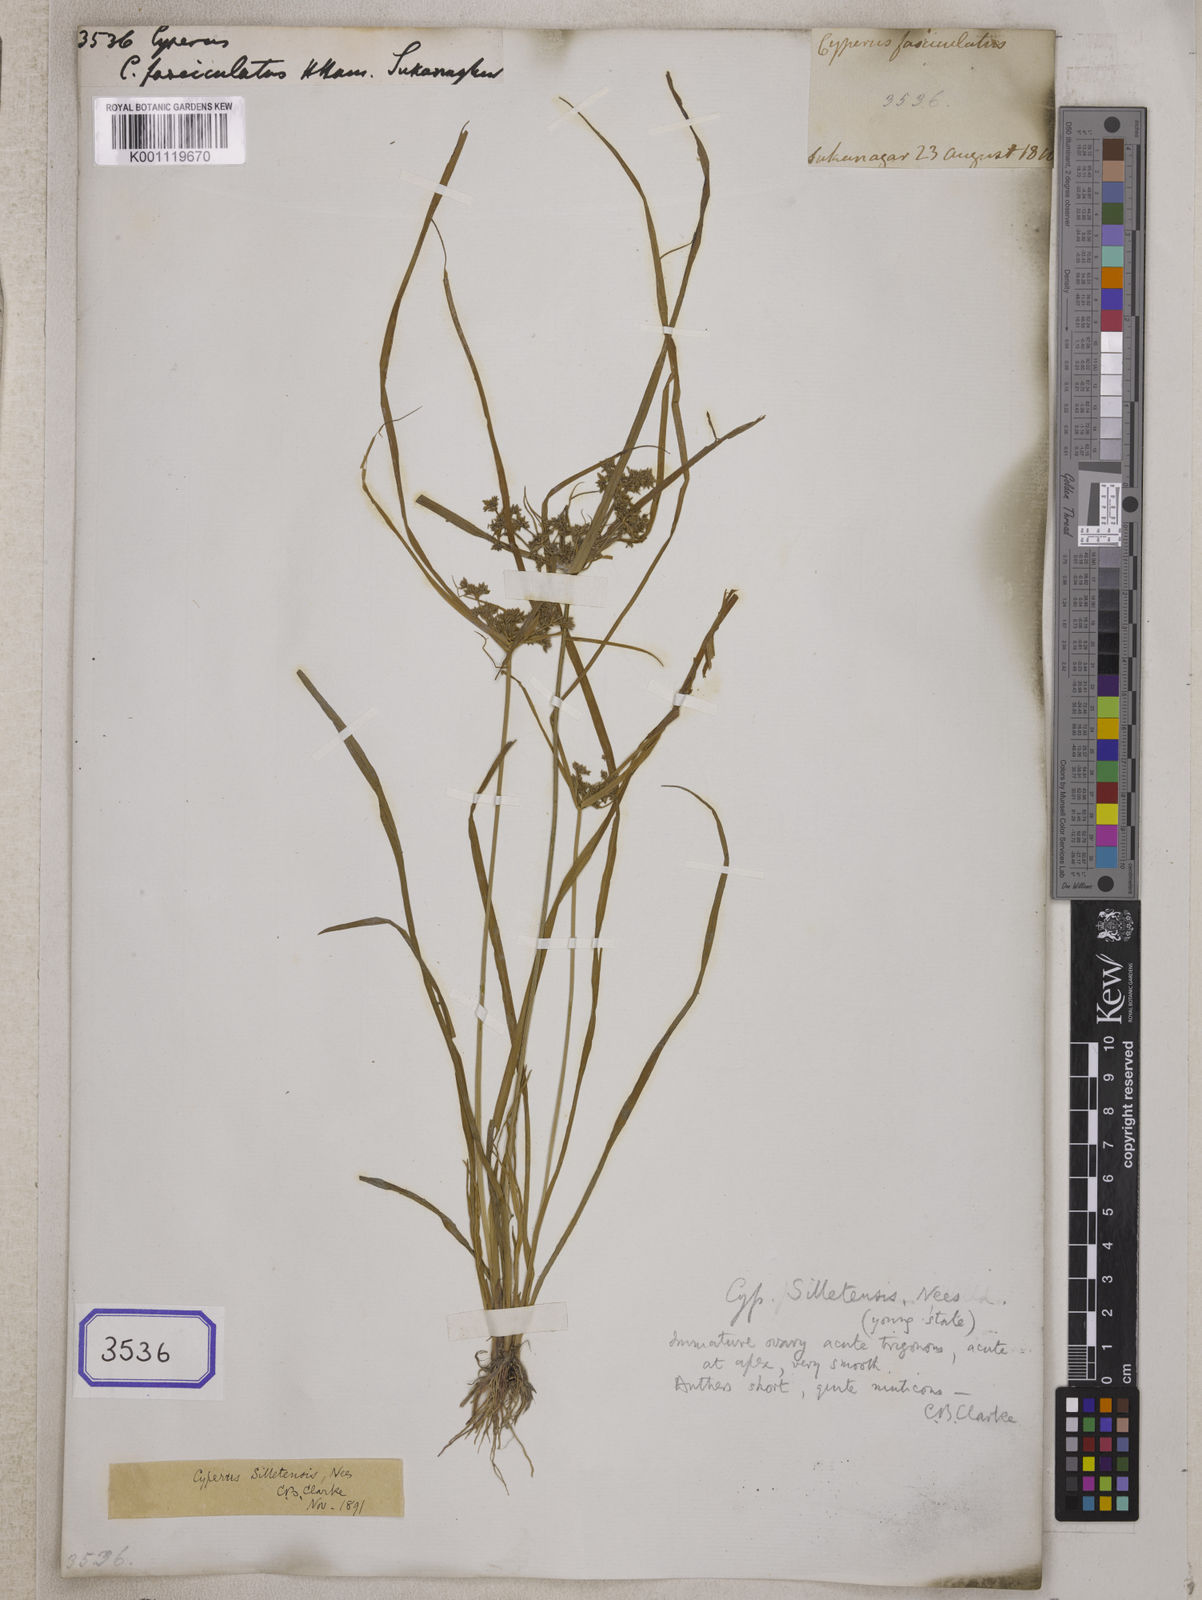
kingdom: Plantae
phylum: Tracheophyta
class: Liliopsida
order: Poales
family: Cyperaceae
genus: Cyperus
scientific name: Cyperus
